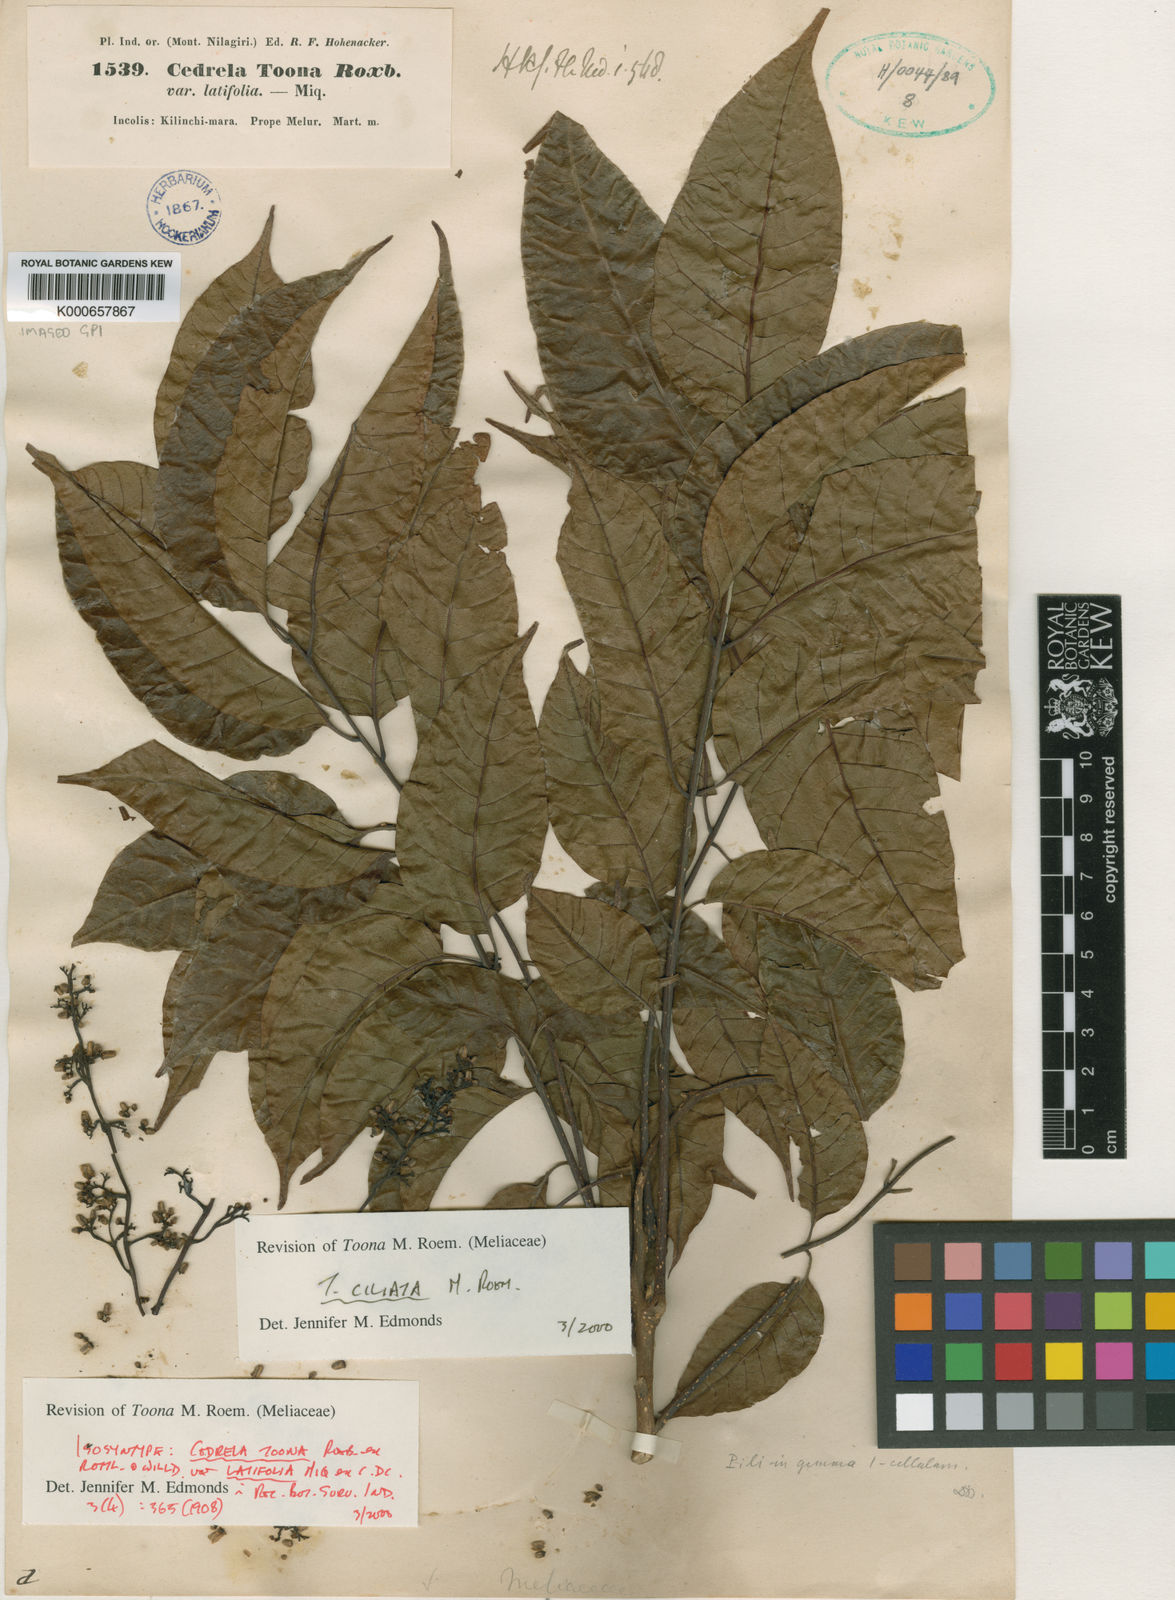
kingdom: Plantae
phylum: Tracheophyta
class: Magnoliopsida
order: Sapindales
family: Meliaceae
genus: Toona
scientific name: Toona ciliata
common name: Australian redcedar
